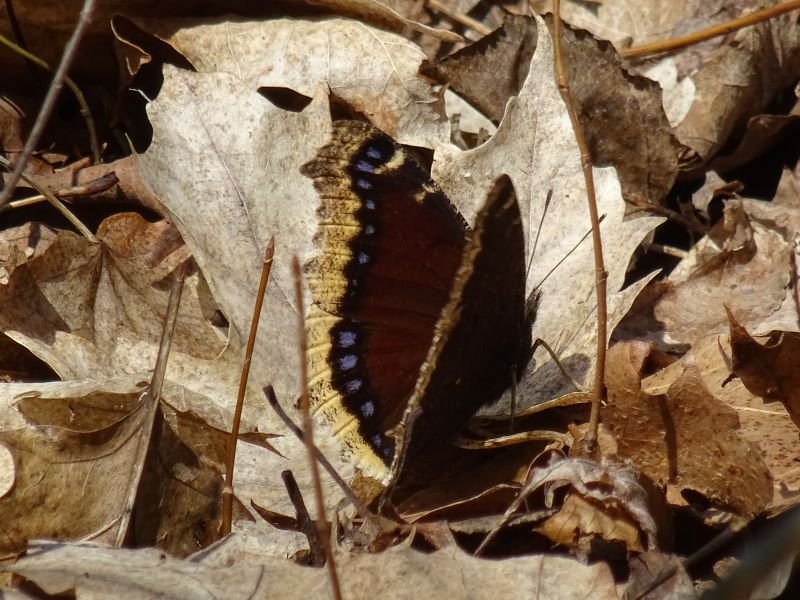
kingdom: Animalia
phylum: Arthropoda
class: Insecta
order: Lepidoptera
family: Nymphalidae
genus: Nymphalis
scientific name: Nymphalis antiopa
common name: Mourning Cloak
